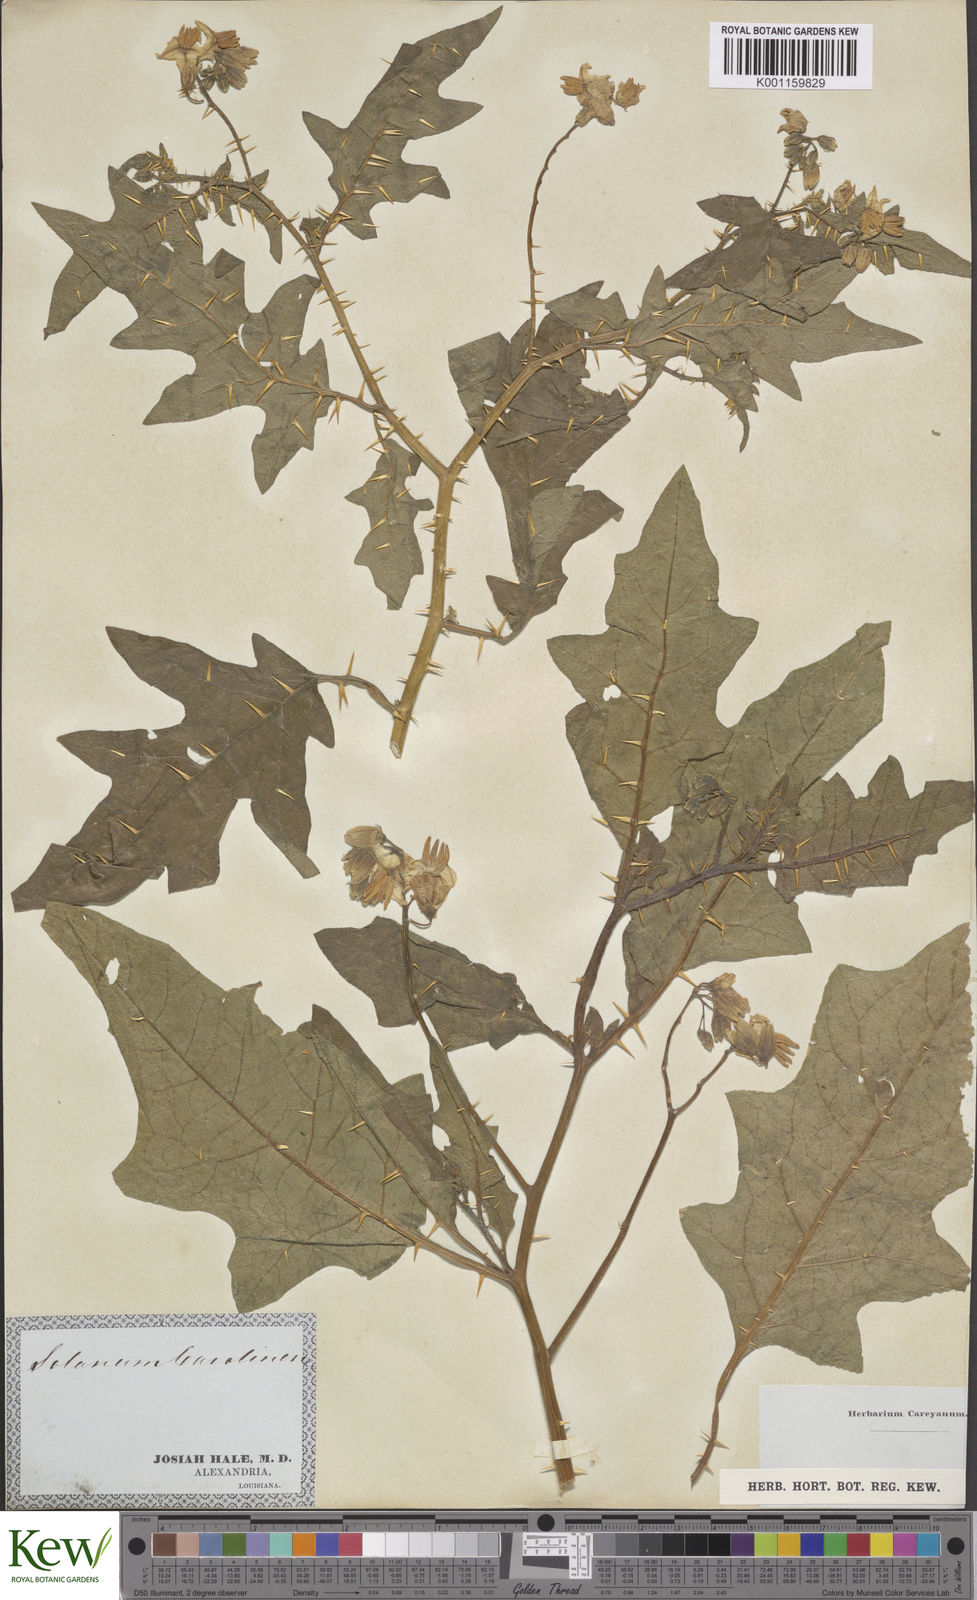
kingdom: Plantae
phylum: Tracheophyta
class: Magnoliopsida
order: Solanales
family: Solanaceae
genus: Solanum
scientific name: Solanum carolinense
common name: Horse-nettle
